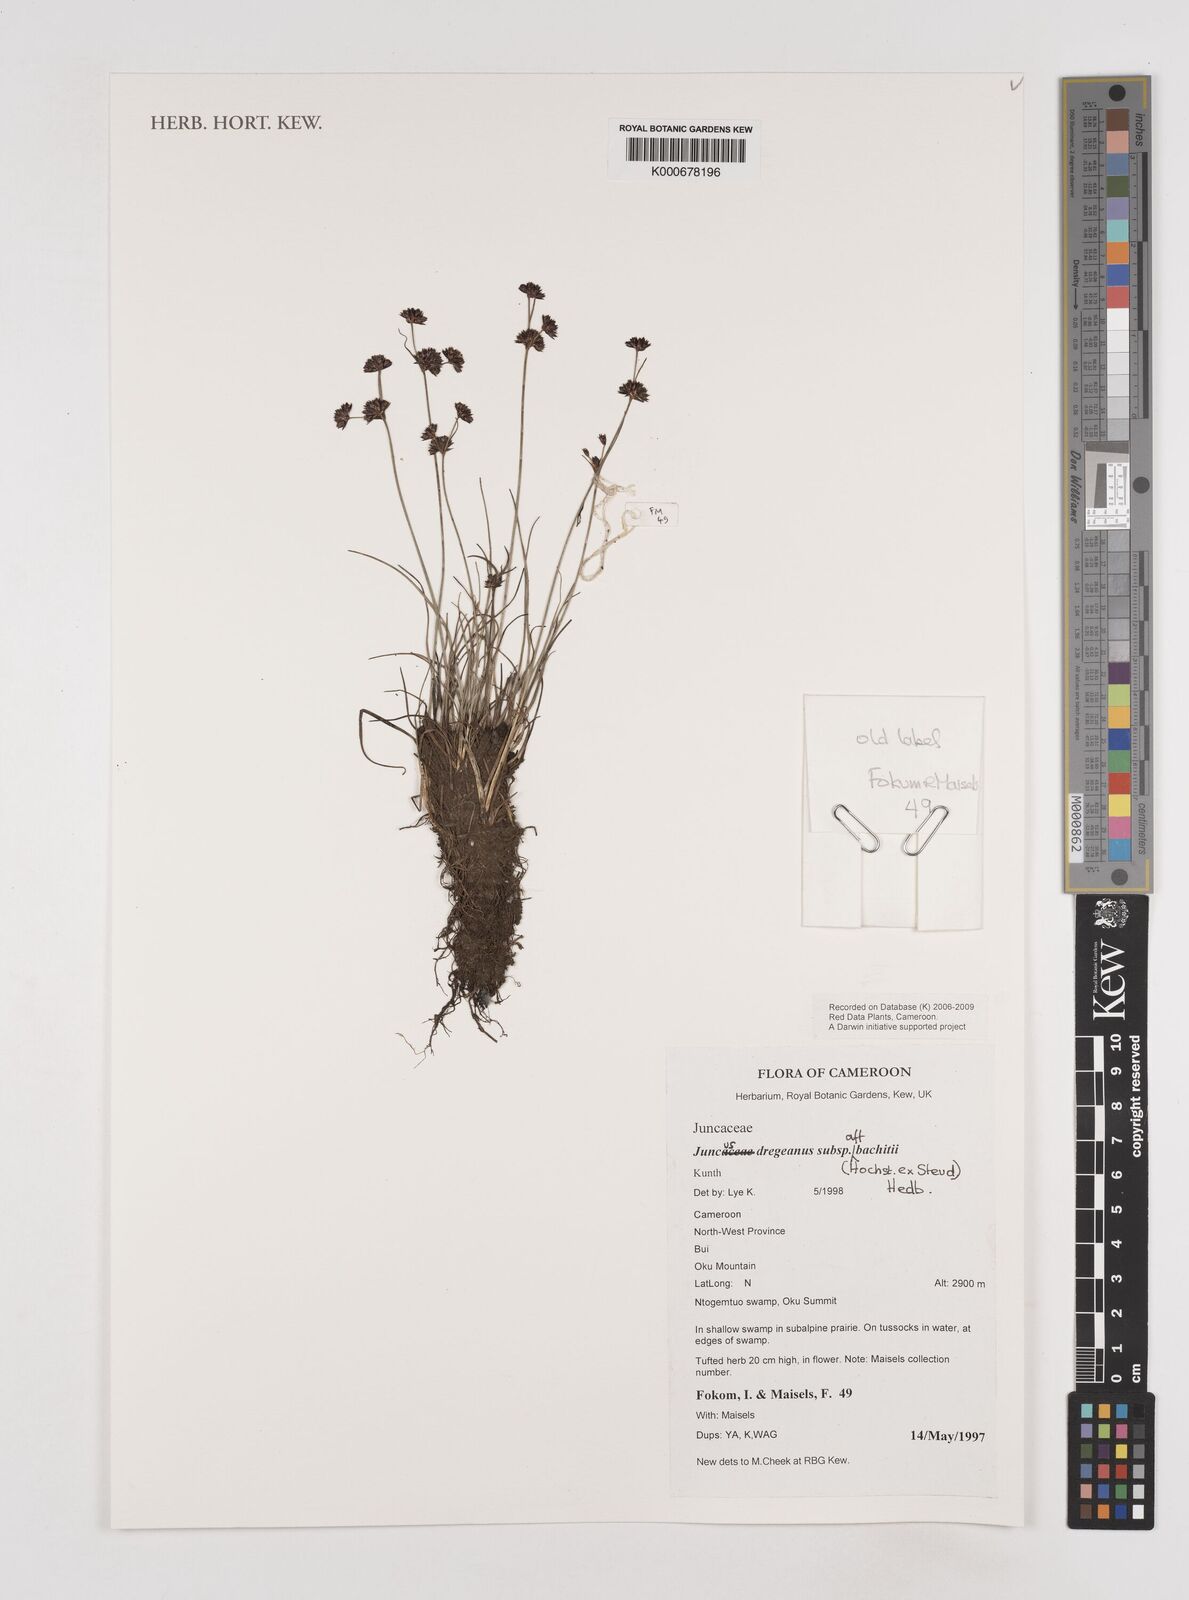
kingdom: Plantae
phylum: Tracheophyta
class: Liliopsida
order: Poales
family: Juncaceae
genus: Juncus
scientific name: Juncus dregeanus
